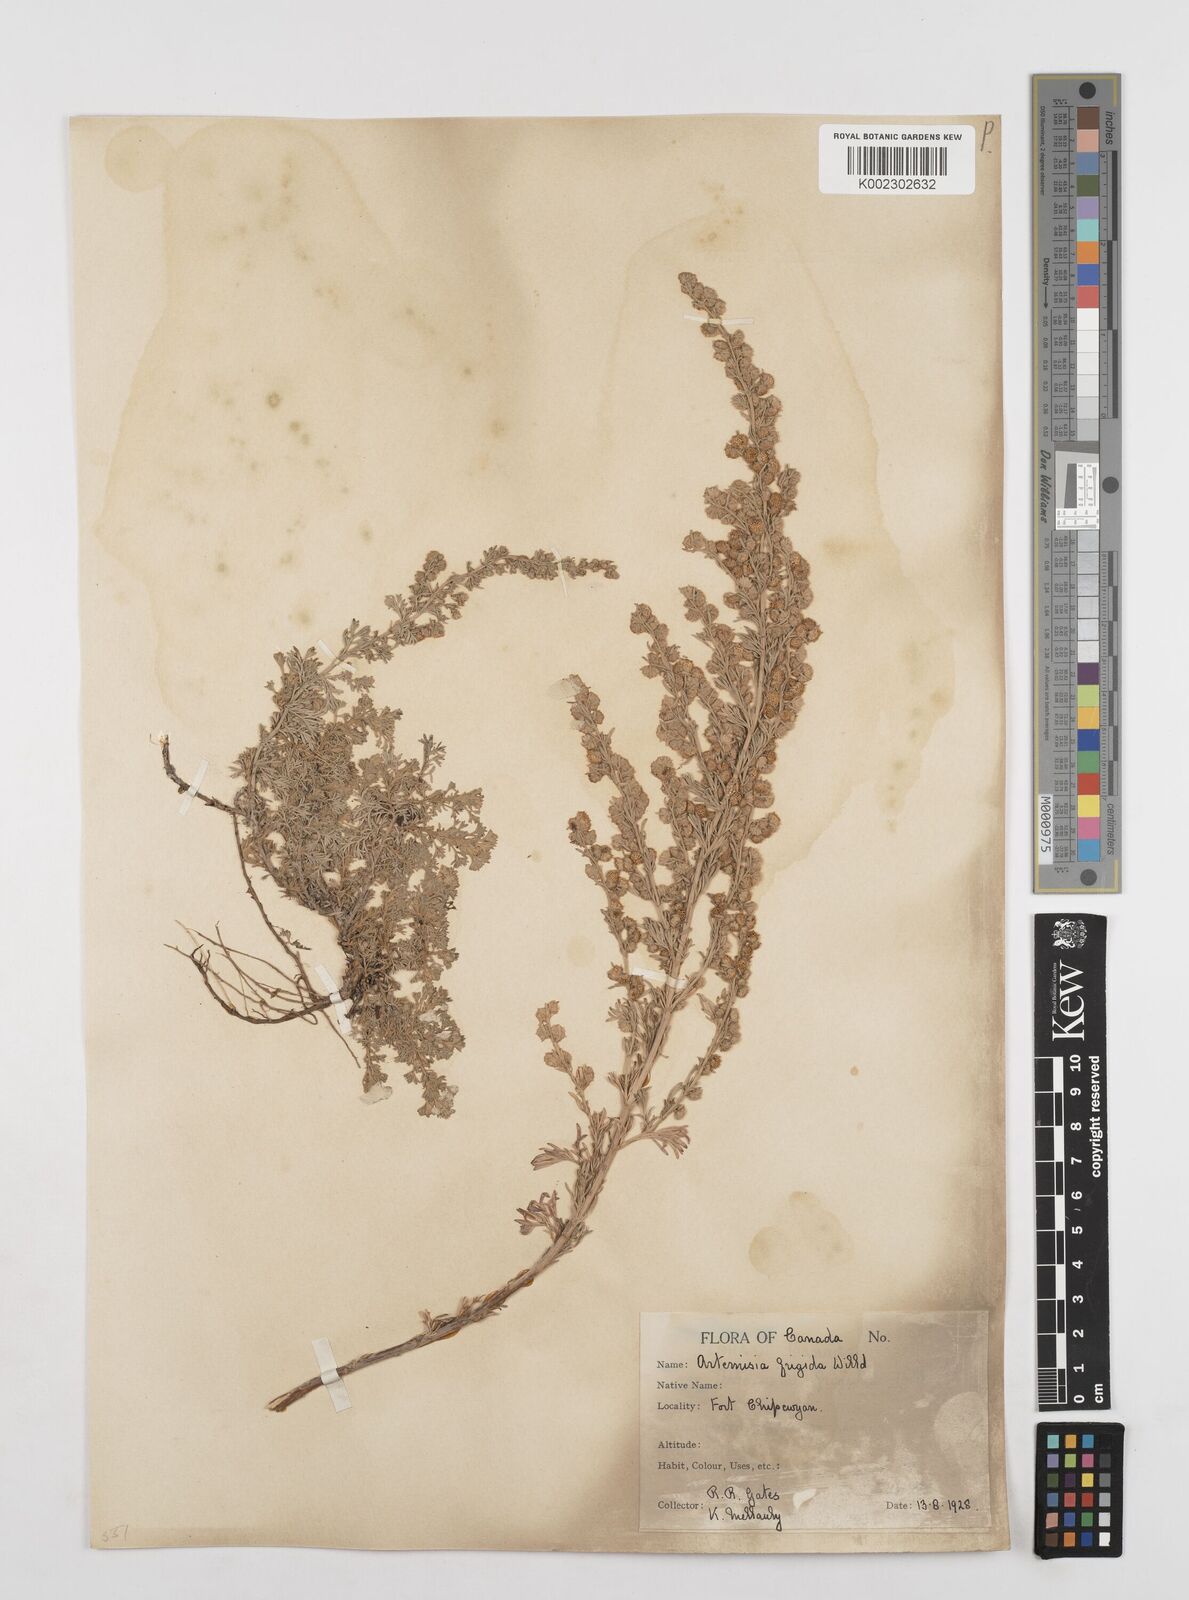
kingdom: Plantae
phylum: Tracheophyta
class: Magnoliopsida
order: Asterales
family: Asteraceae
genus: Artemisia
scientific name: Artemisia frigida
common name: Prairie sagewort
